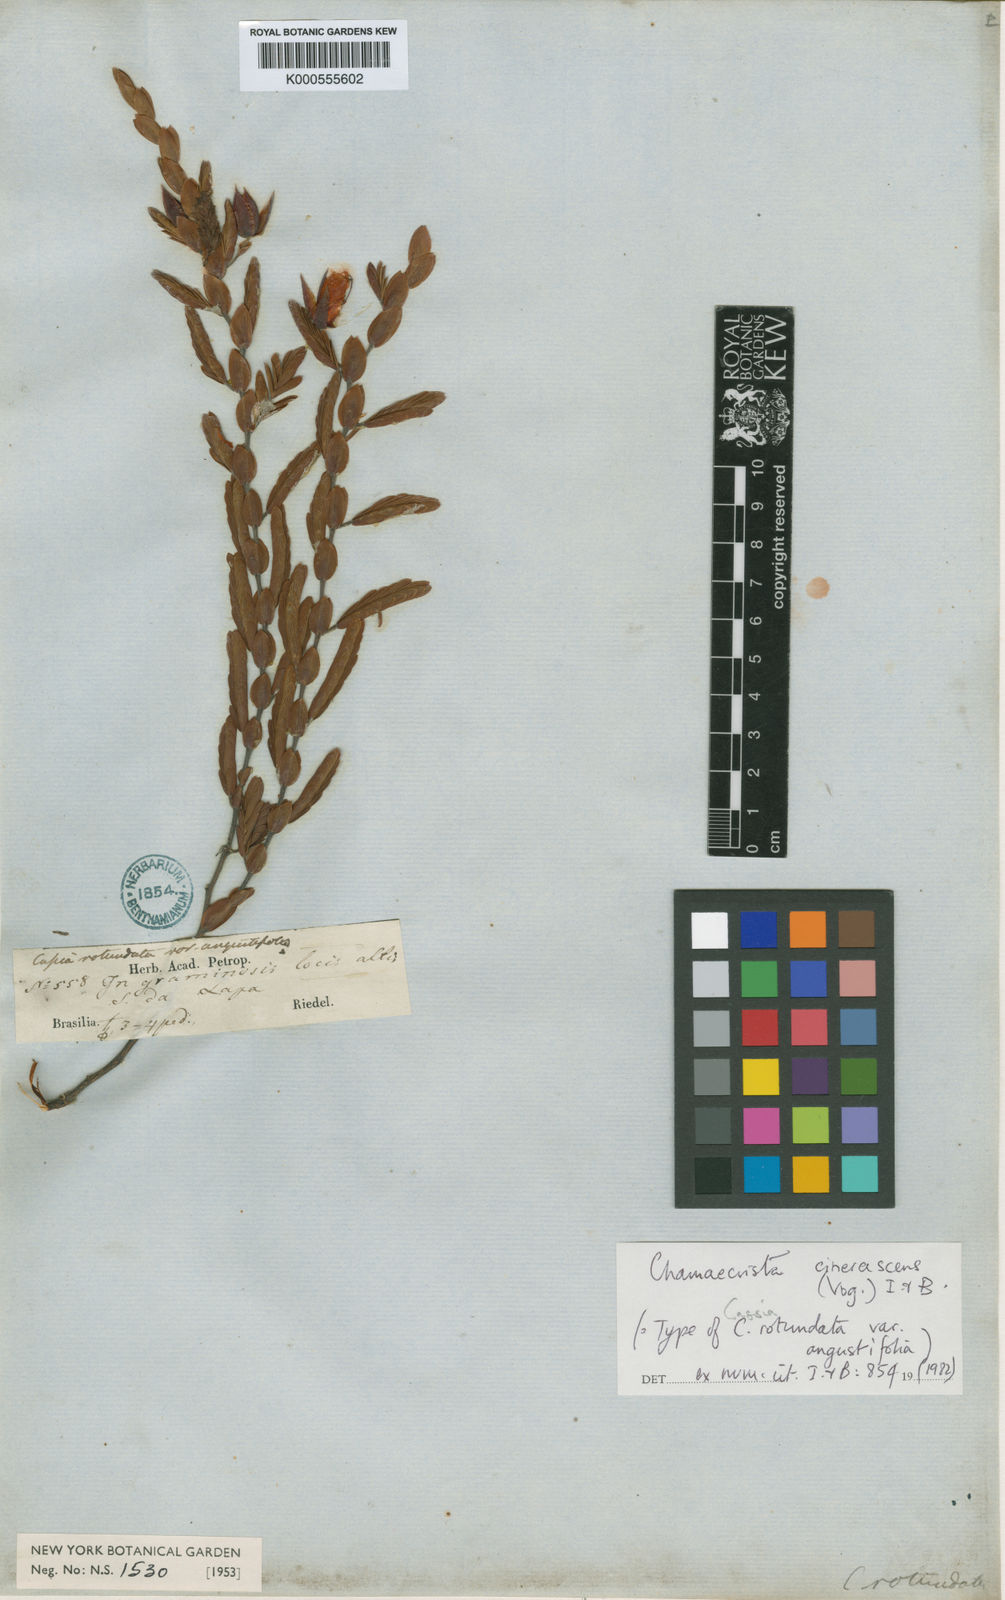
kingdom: Plantae
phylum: Tracheophyta
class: Magnoliopsida
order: Fabales
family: Fabaceae
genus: Chamaecrista
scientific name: Chamaecrista
